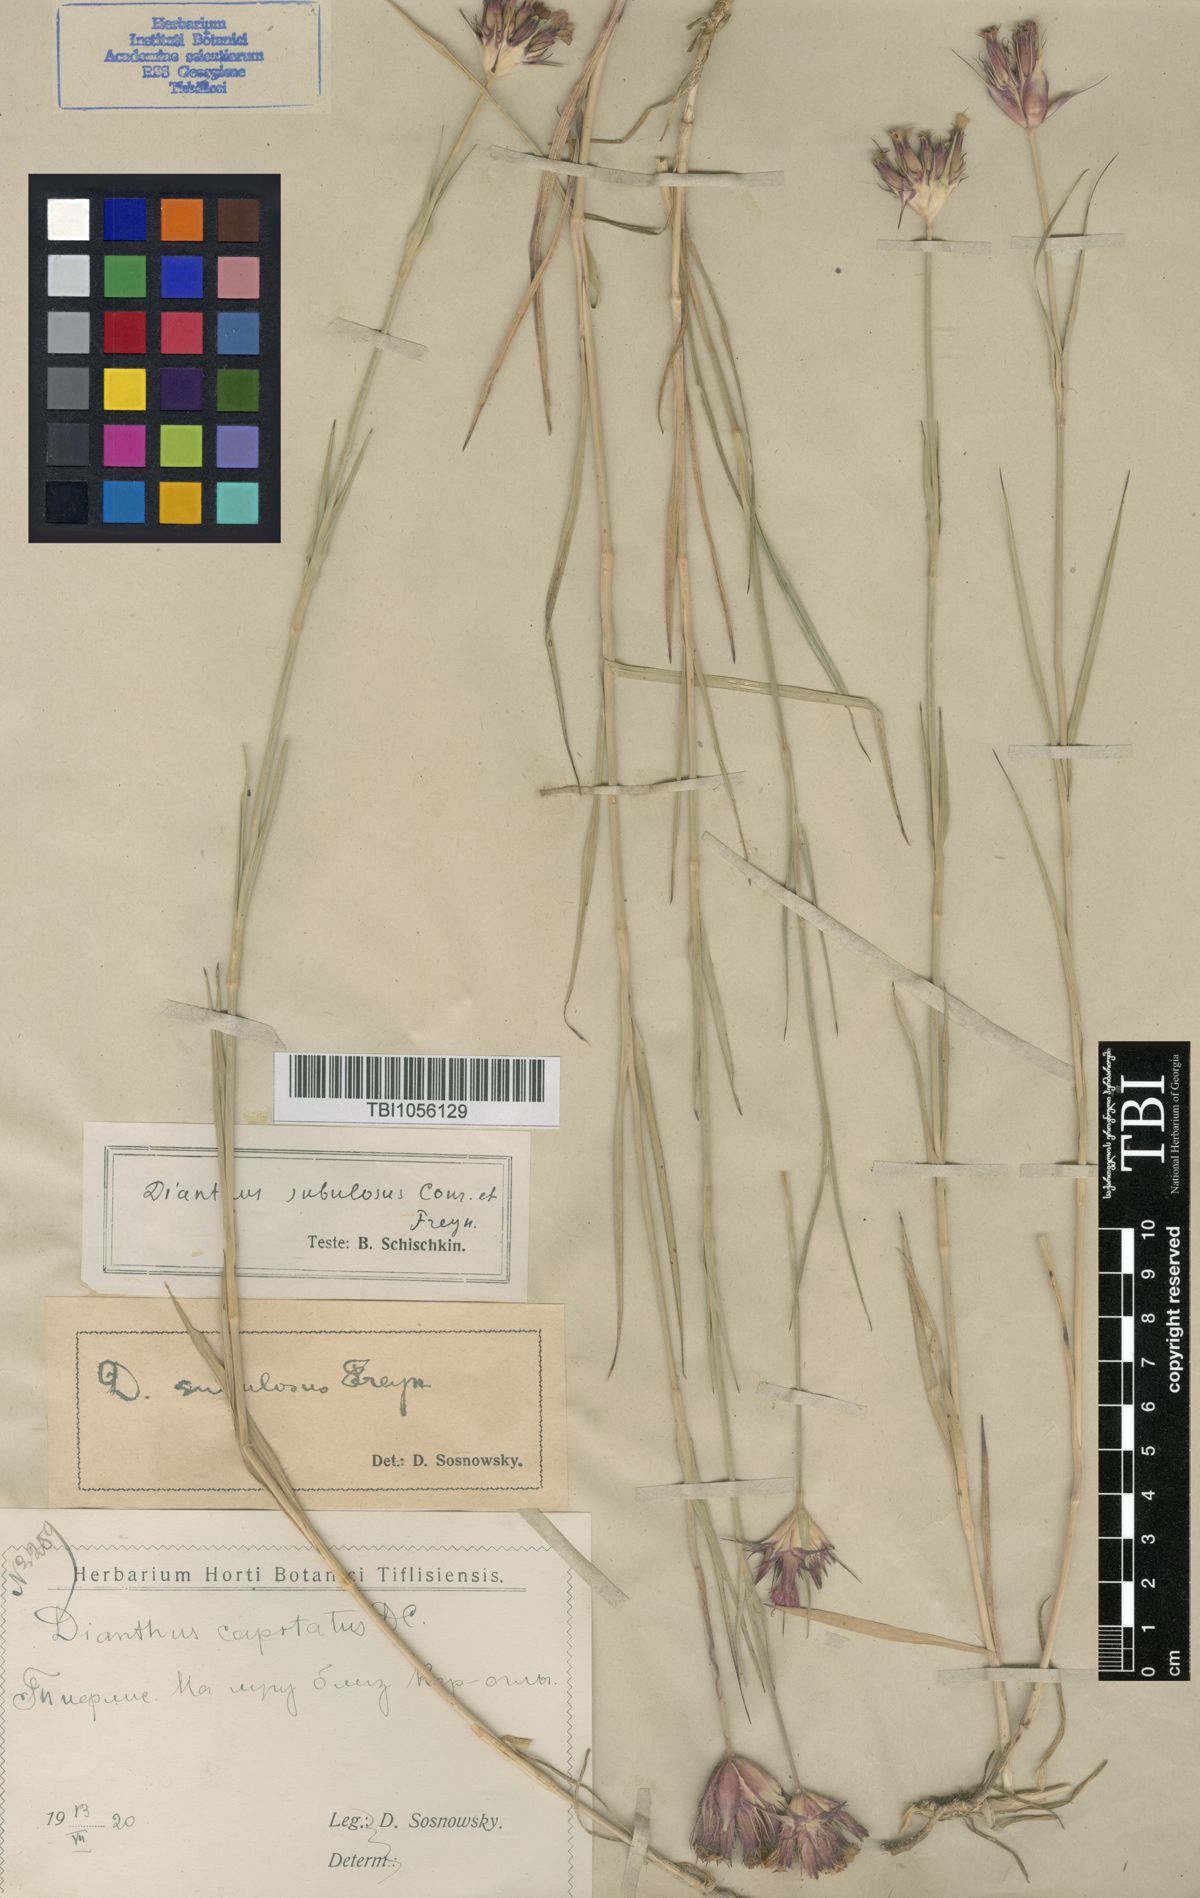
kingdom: Plantae
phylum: Tracheophyta
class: Magnoliopsida
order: Caryophyllales
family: Caryophyllaceae
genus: Dianthus
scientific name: Dianthus subulosus
